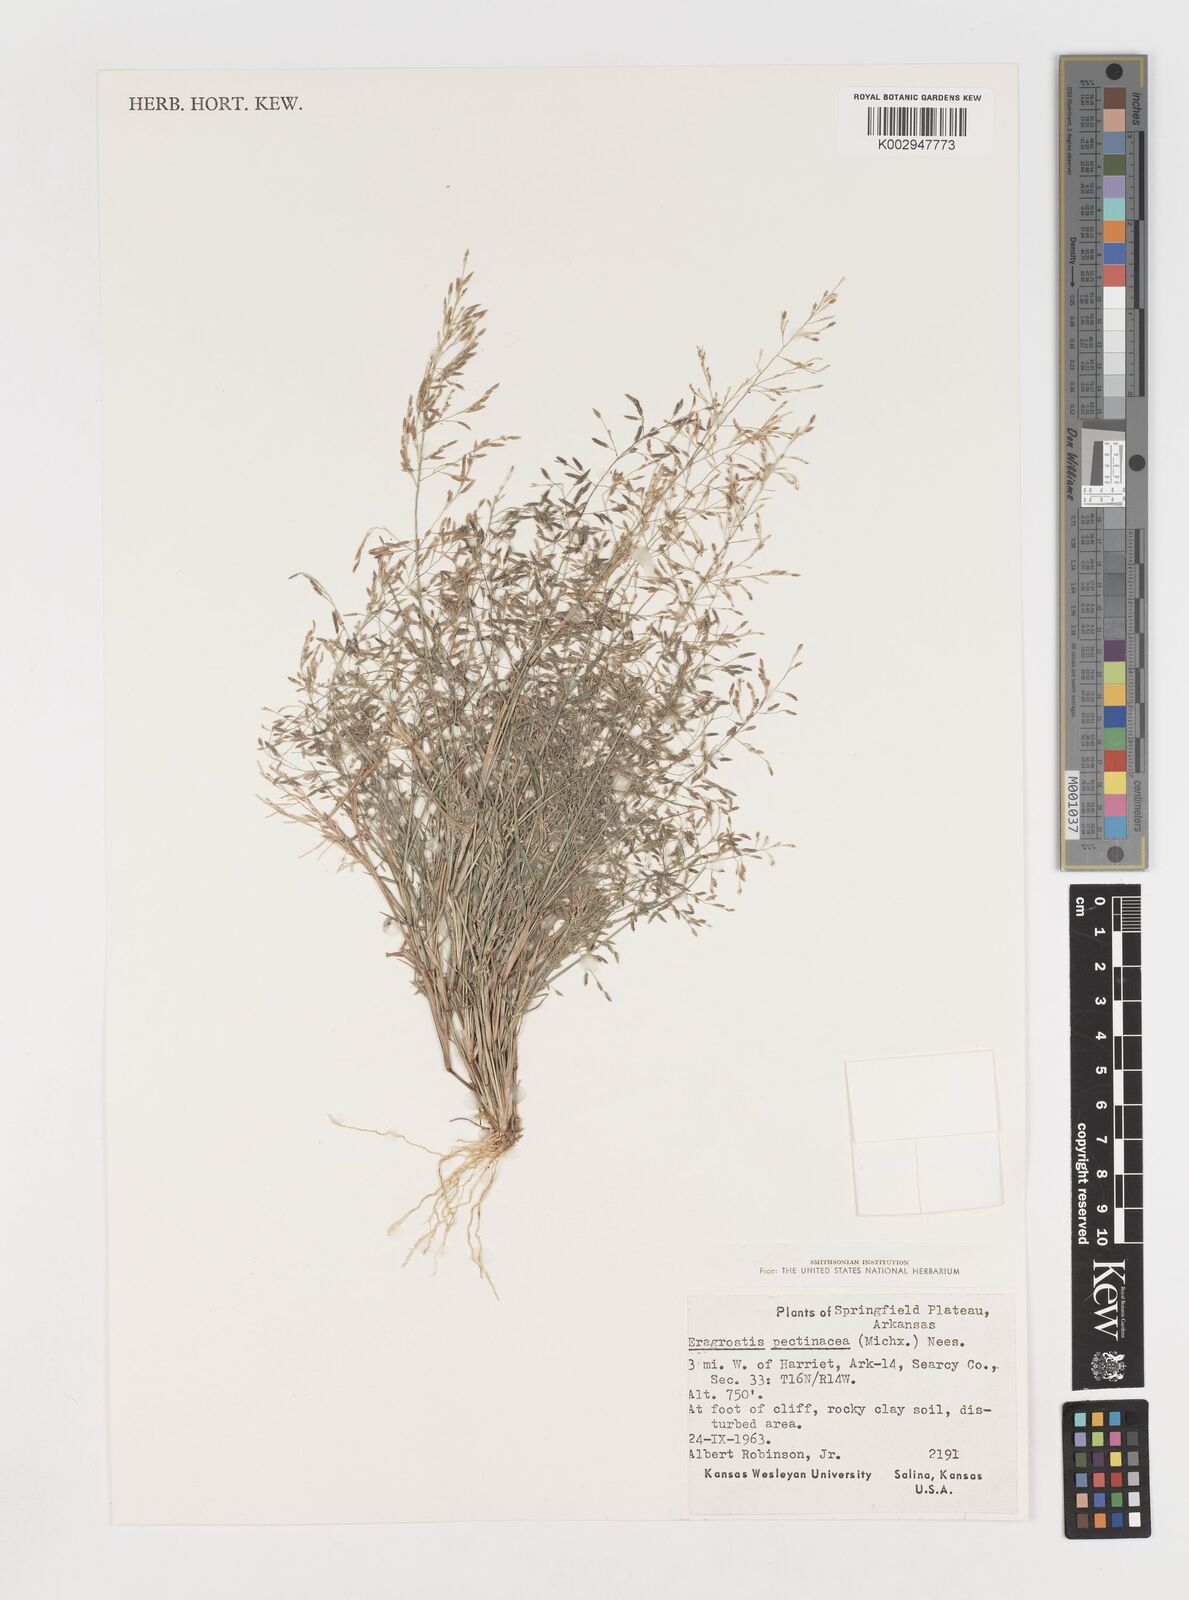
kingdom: Plantae
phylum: Tracheophyta
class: Liliopsida
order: Poales
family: Poaceae
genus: Eragrostis
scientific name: Eragrostis pectinacea
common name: Tufted lovegrass
